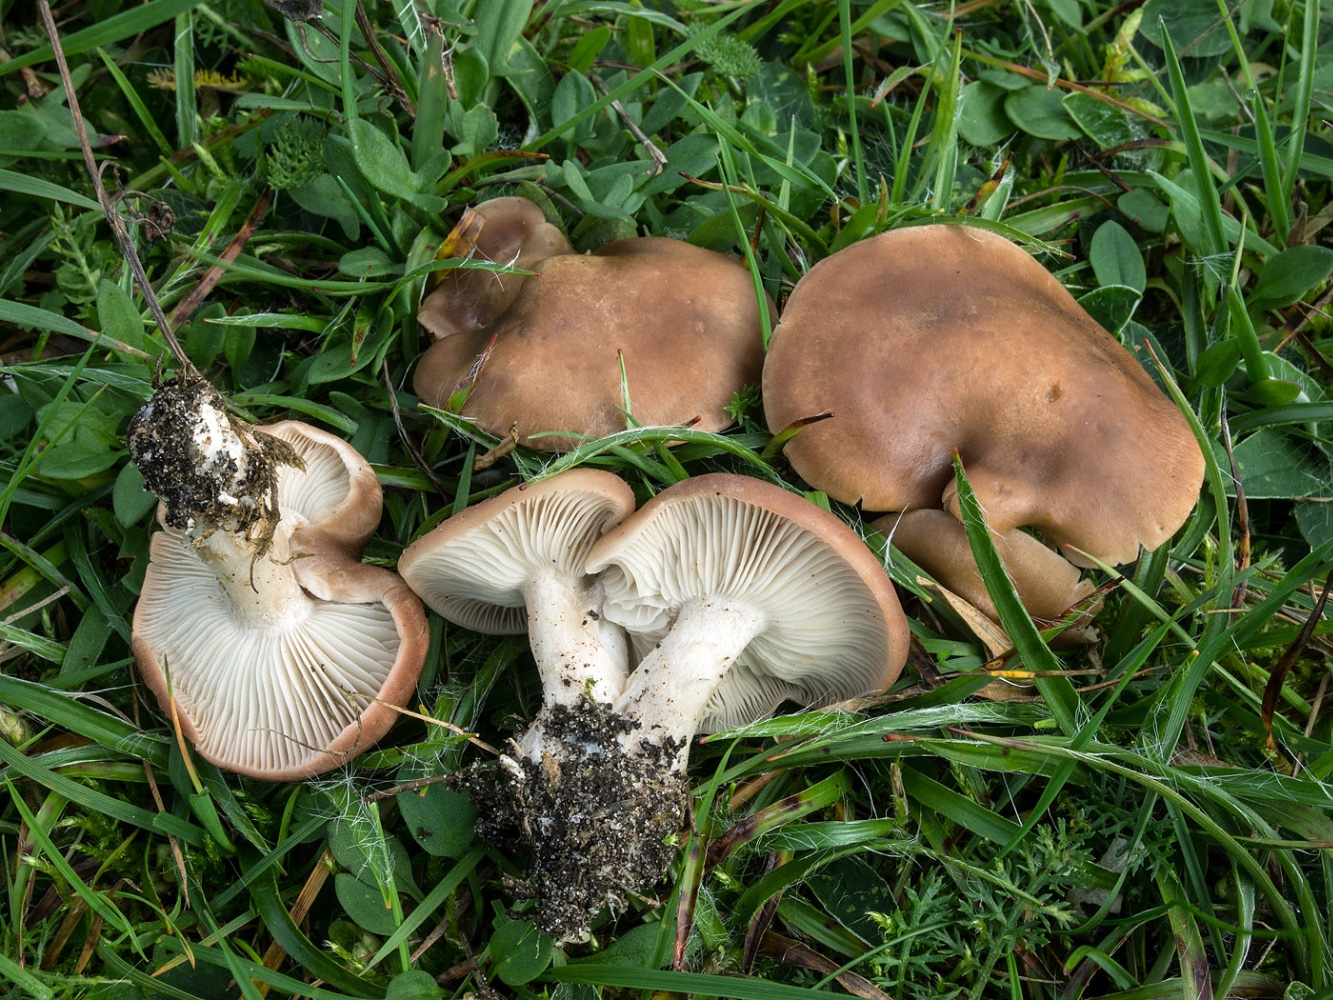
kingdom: Fungi
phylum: Basidiomycota
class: Agaricomycetes
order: Agaricales
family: Lyophyllaceae
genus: Gerhardtia
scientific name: Gerhardtia borealis
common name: rosabrun fagerhat
